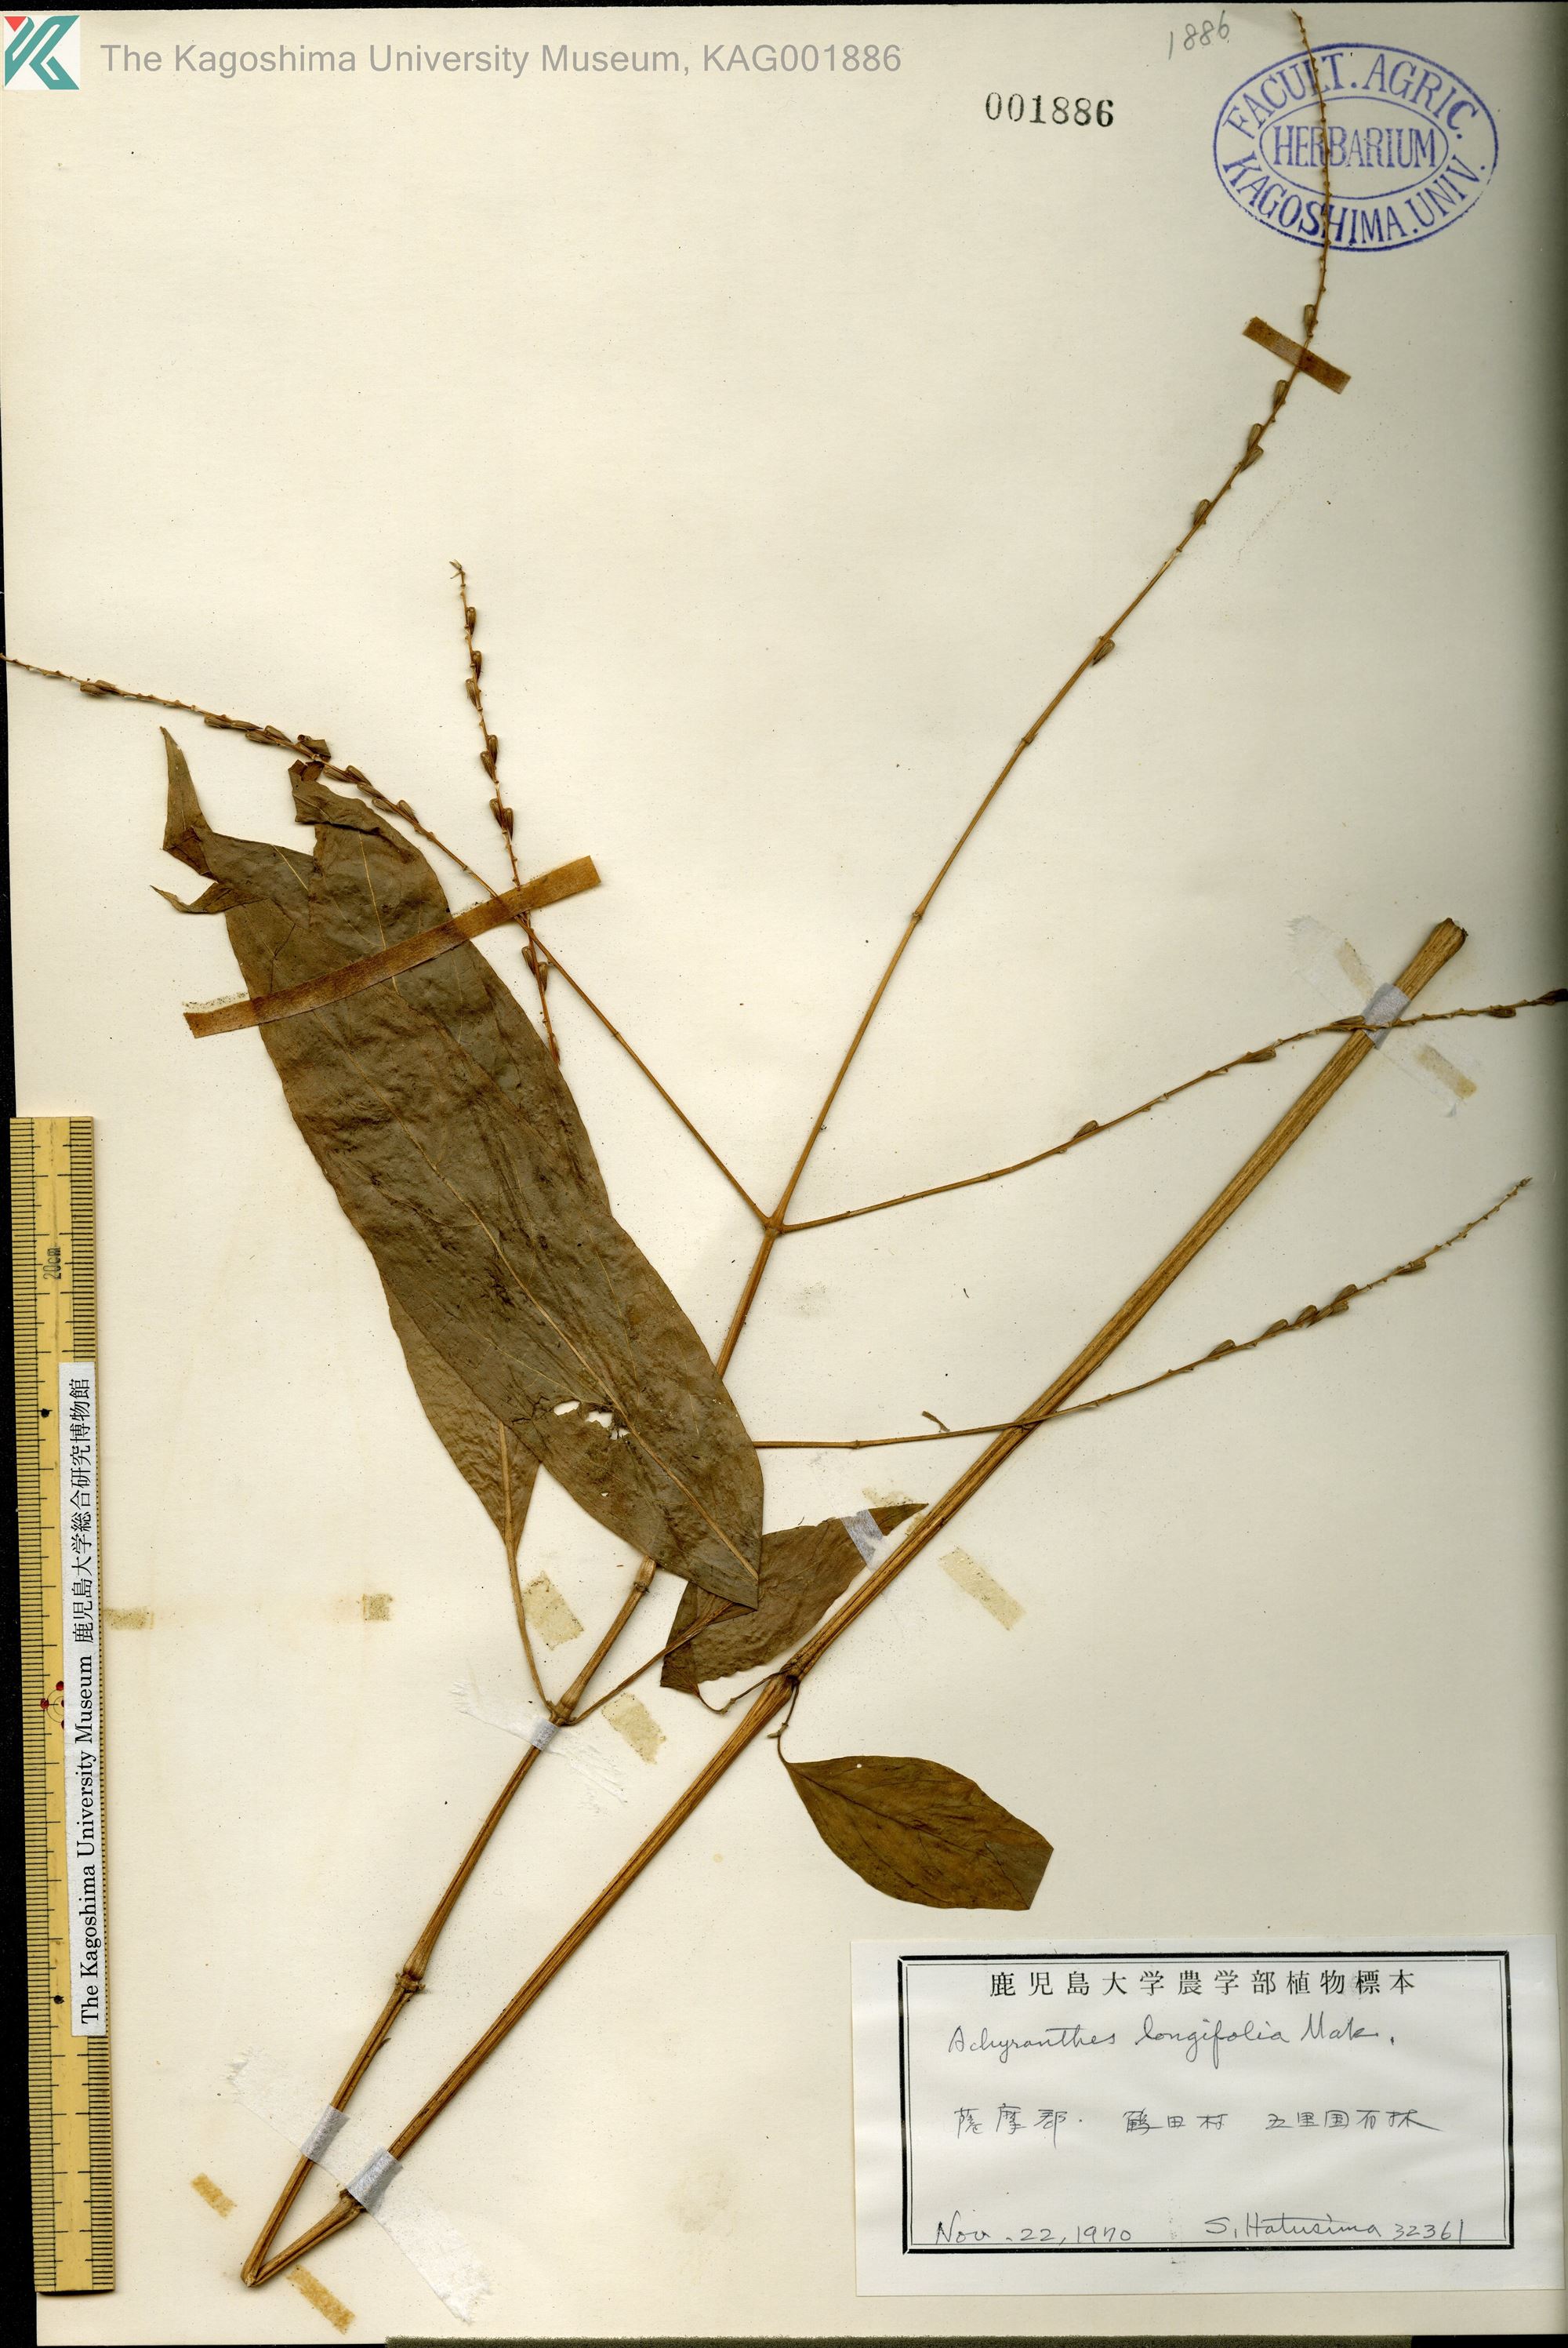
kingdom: Plantae
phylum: Tracheophyta
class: Magnoliopsida
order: Caryophyllales
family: Amaranthaceae
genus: Achyranthes
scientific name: Achyranthes bidentata
